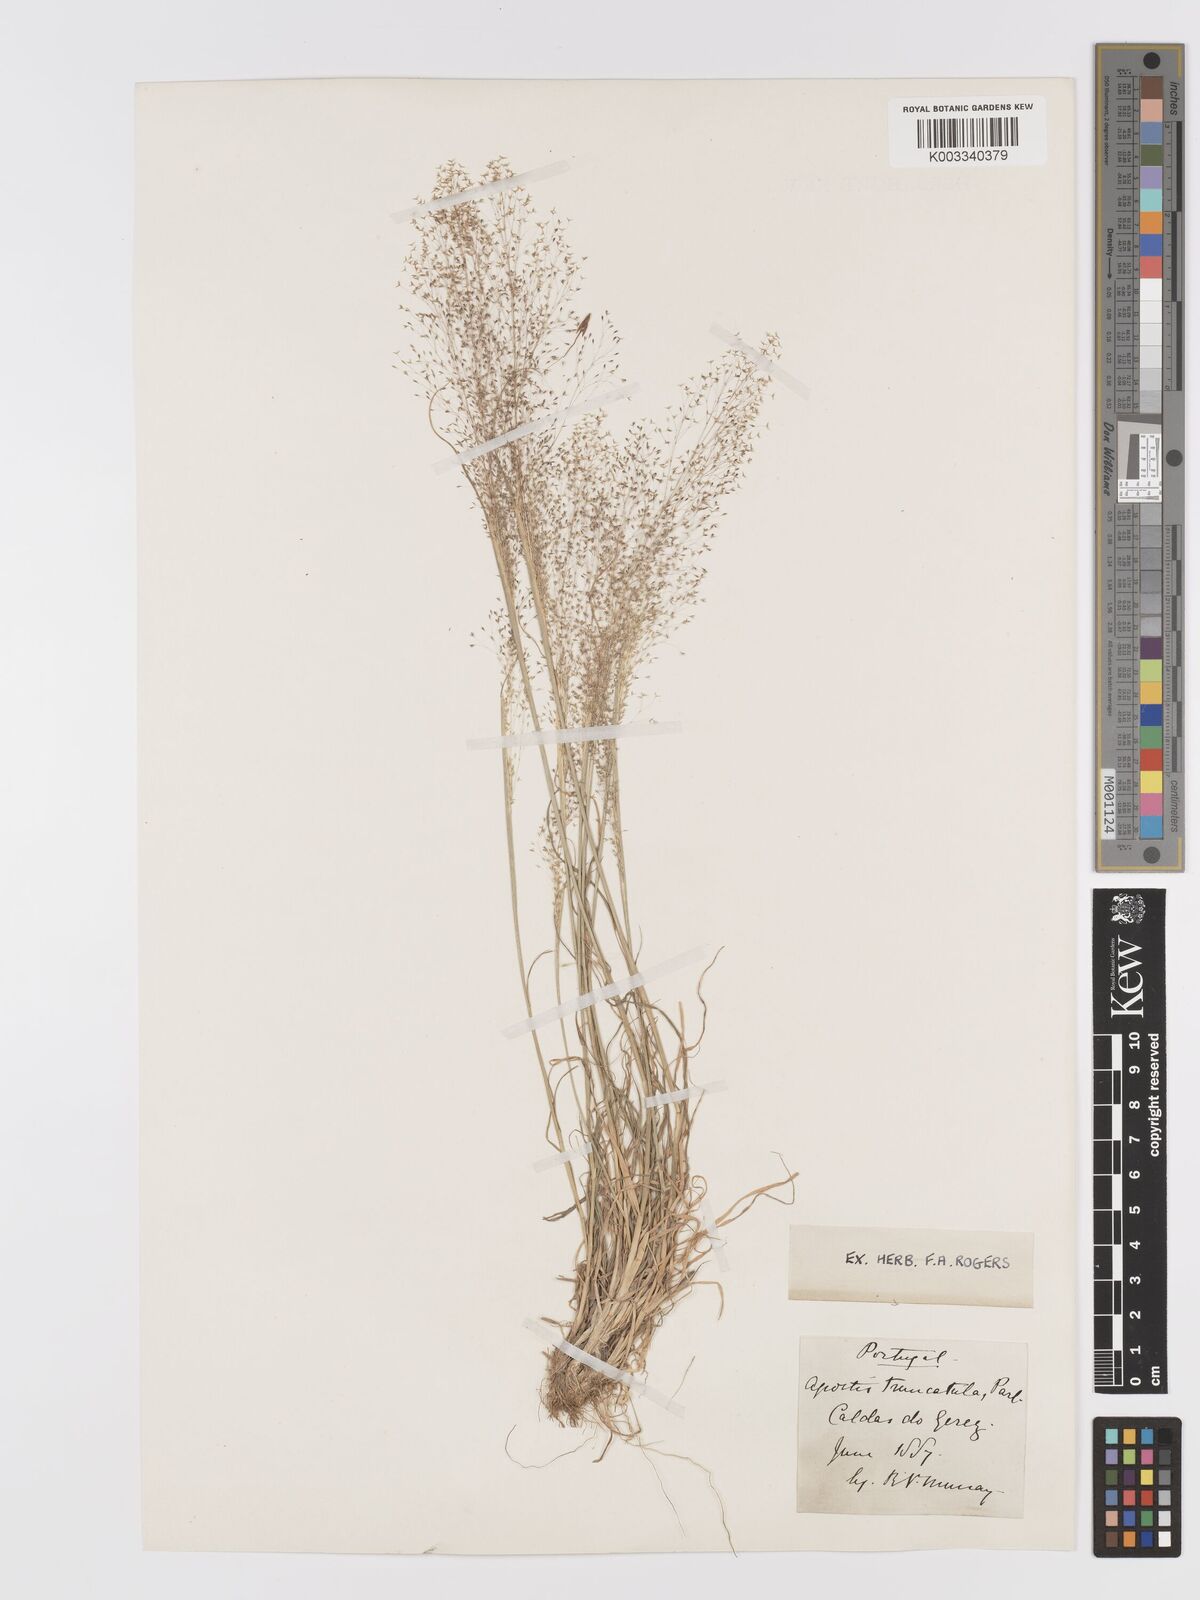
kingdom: Plantae
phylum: Tracheophyta
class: Liliopsida
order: Poales
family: Poaceae
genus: Agrostis
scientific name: Agrostis castellana
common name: Highland bent
